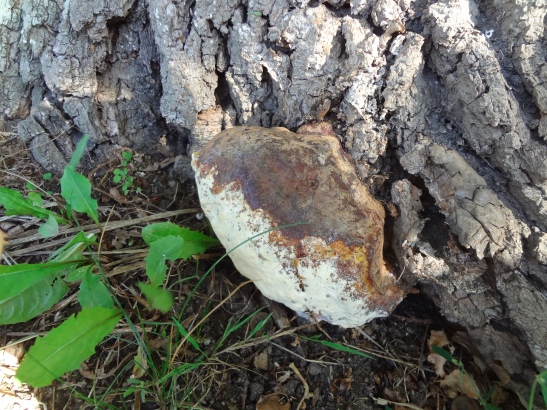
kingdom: Fungi
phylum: Basidiomycota
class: Agaricomycetes
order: Polyporales
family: Polyporaceae
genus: Ganoderma
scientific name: Ganoderma resinaceum
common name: gyldenbrun lakporesvamp
